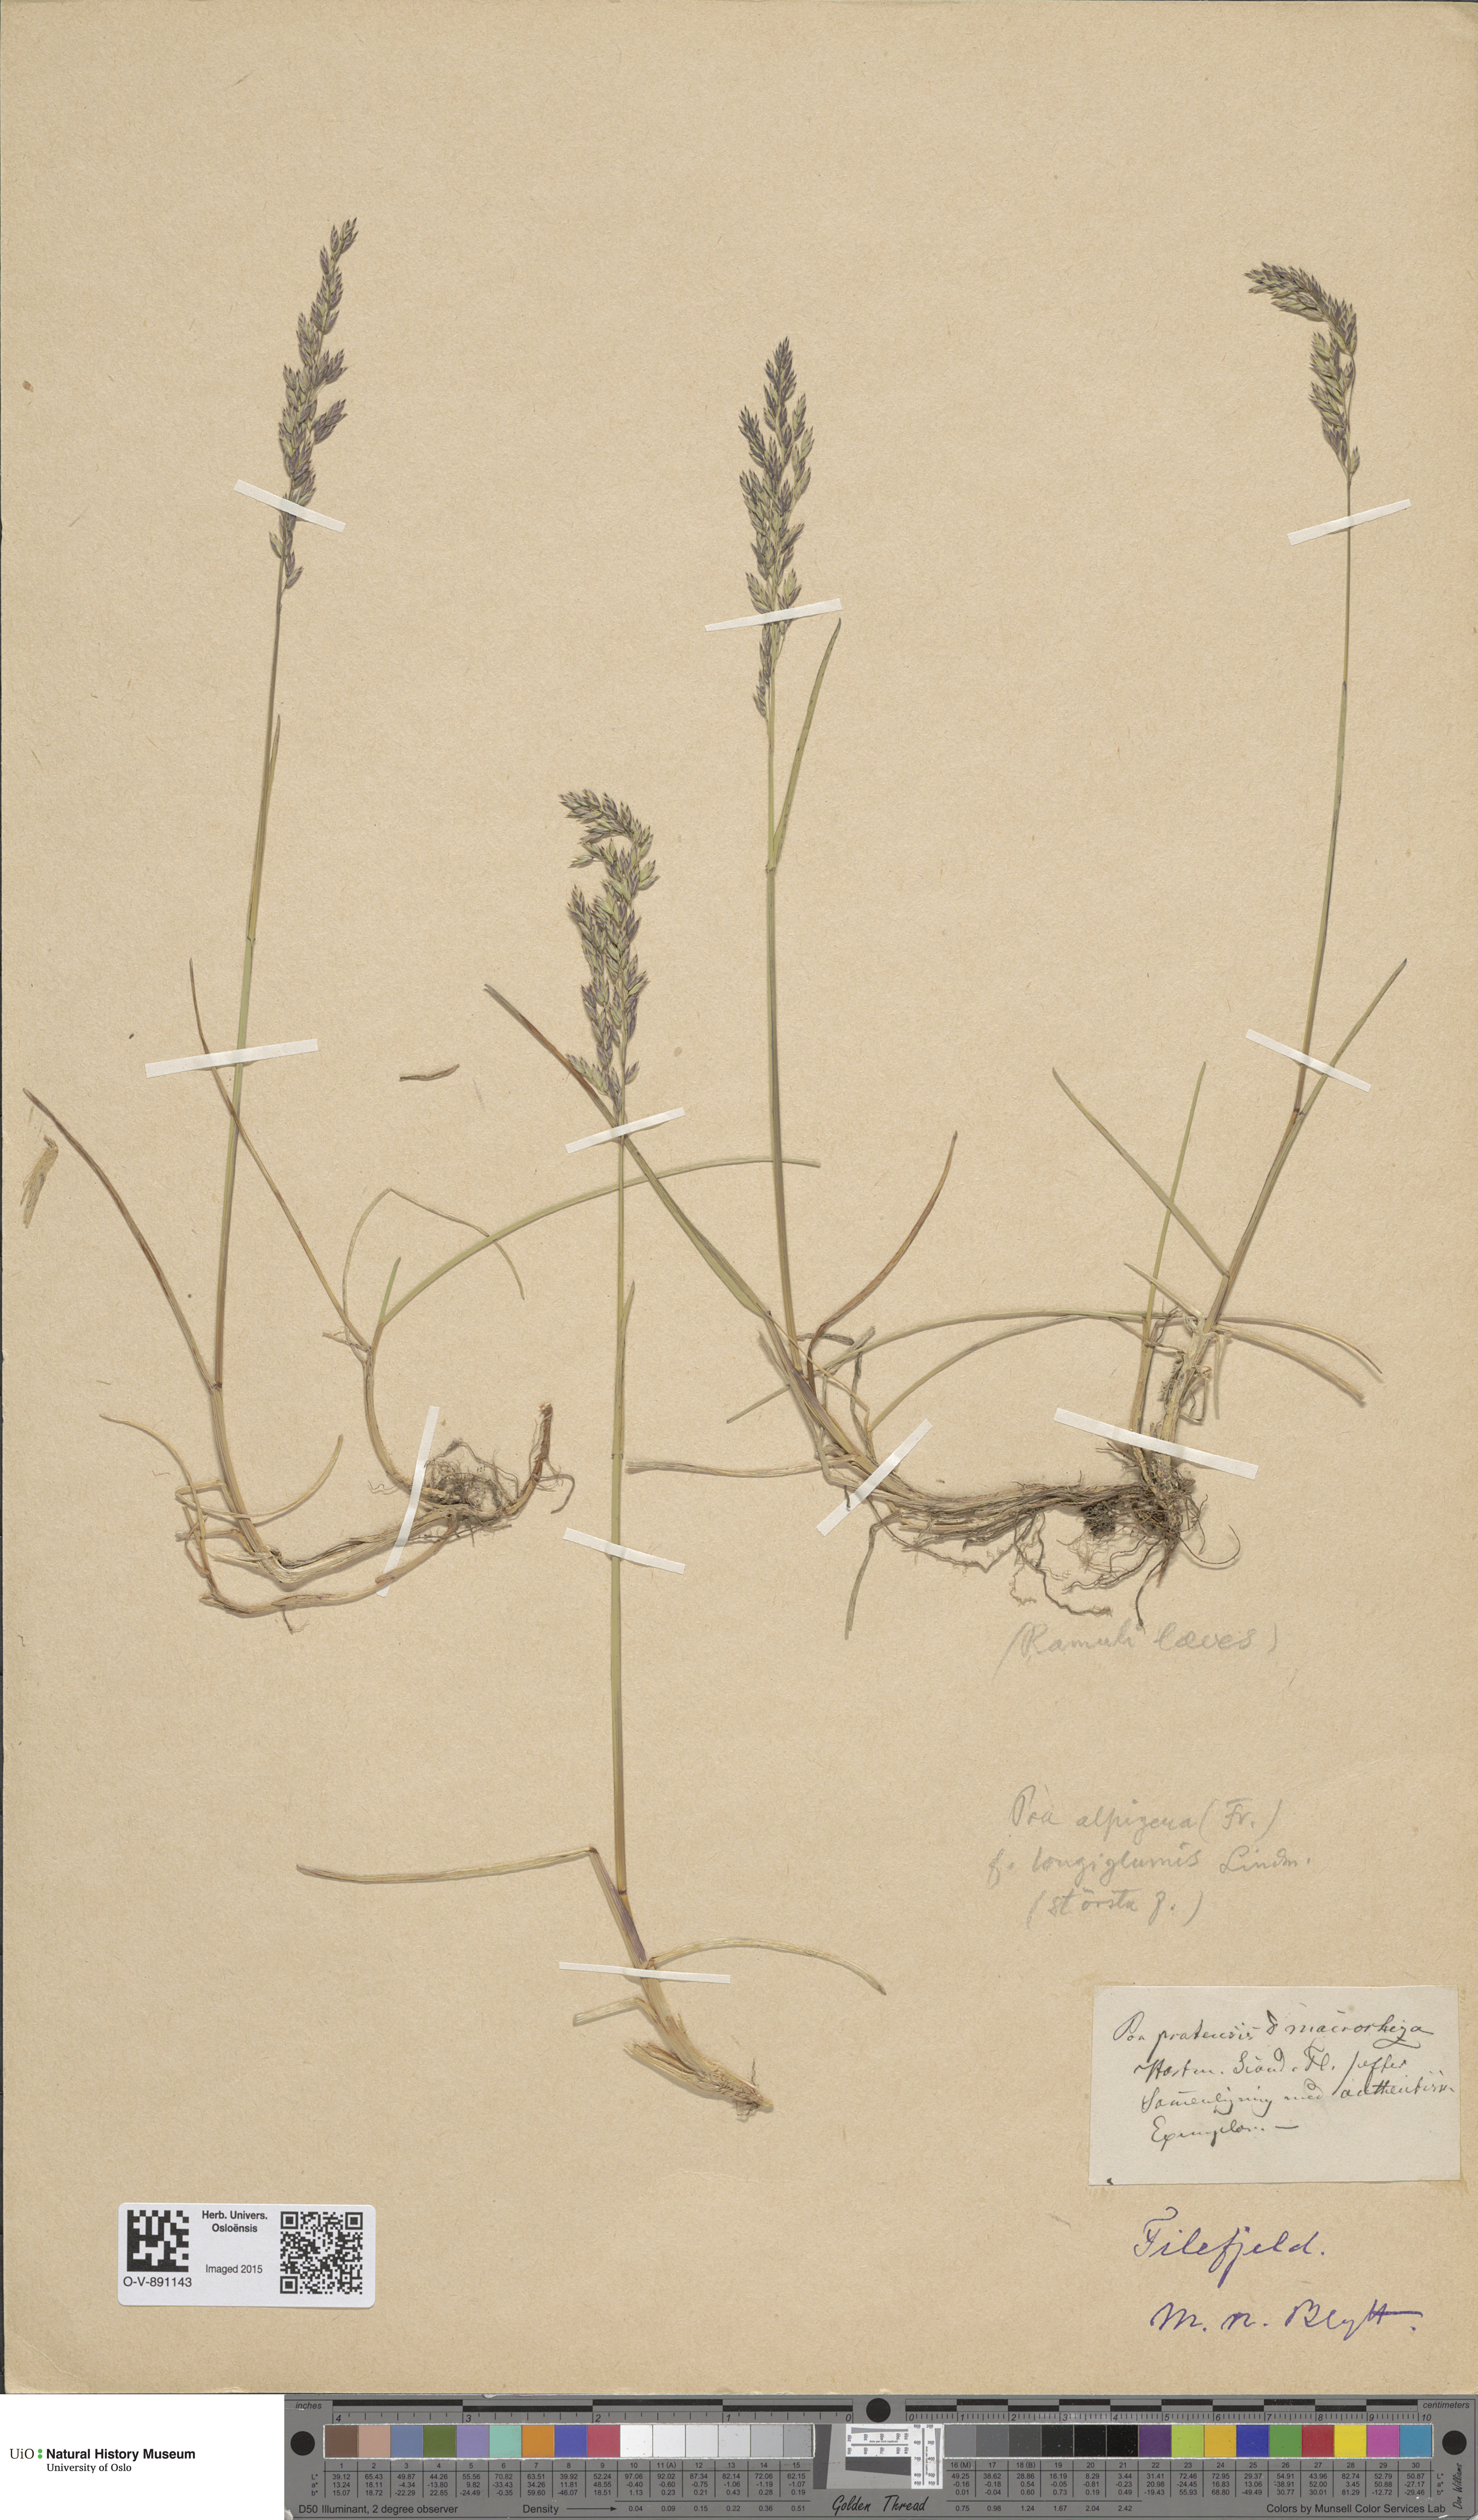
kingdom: Plantae
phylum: Tracheophyta
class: Liliopsida
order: Poales
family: Poaceae
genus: Poa
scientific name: Poa alpigena
